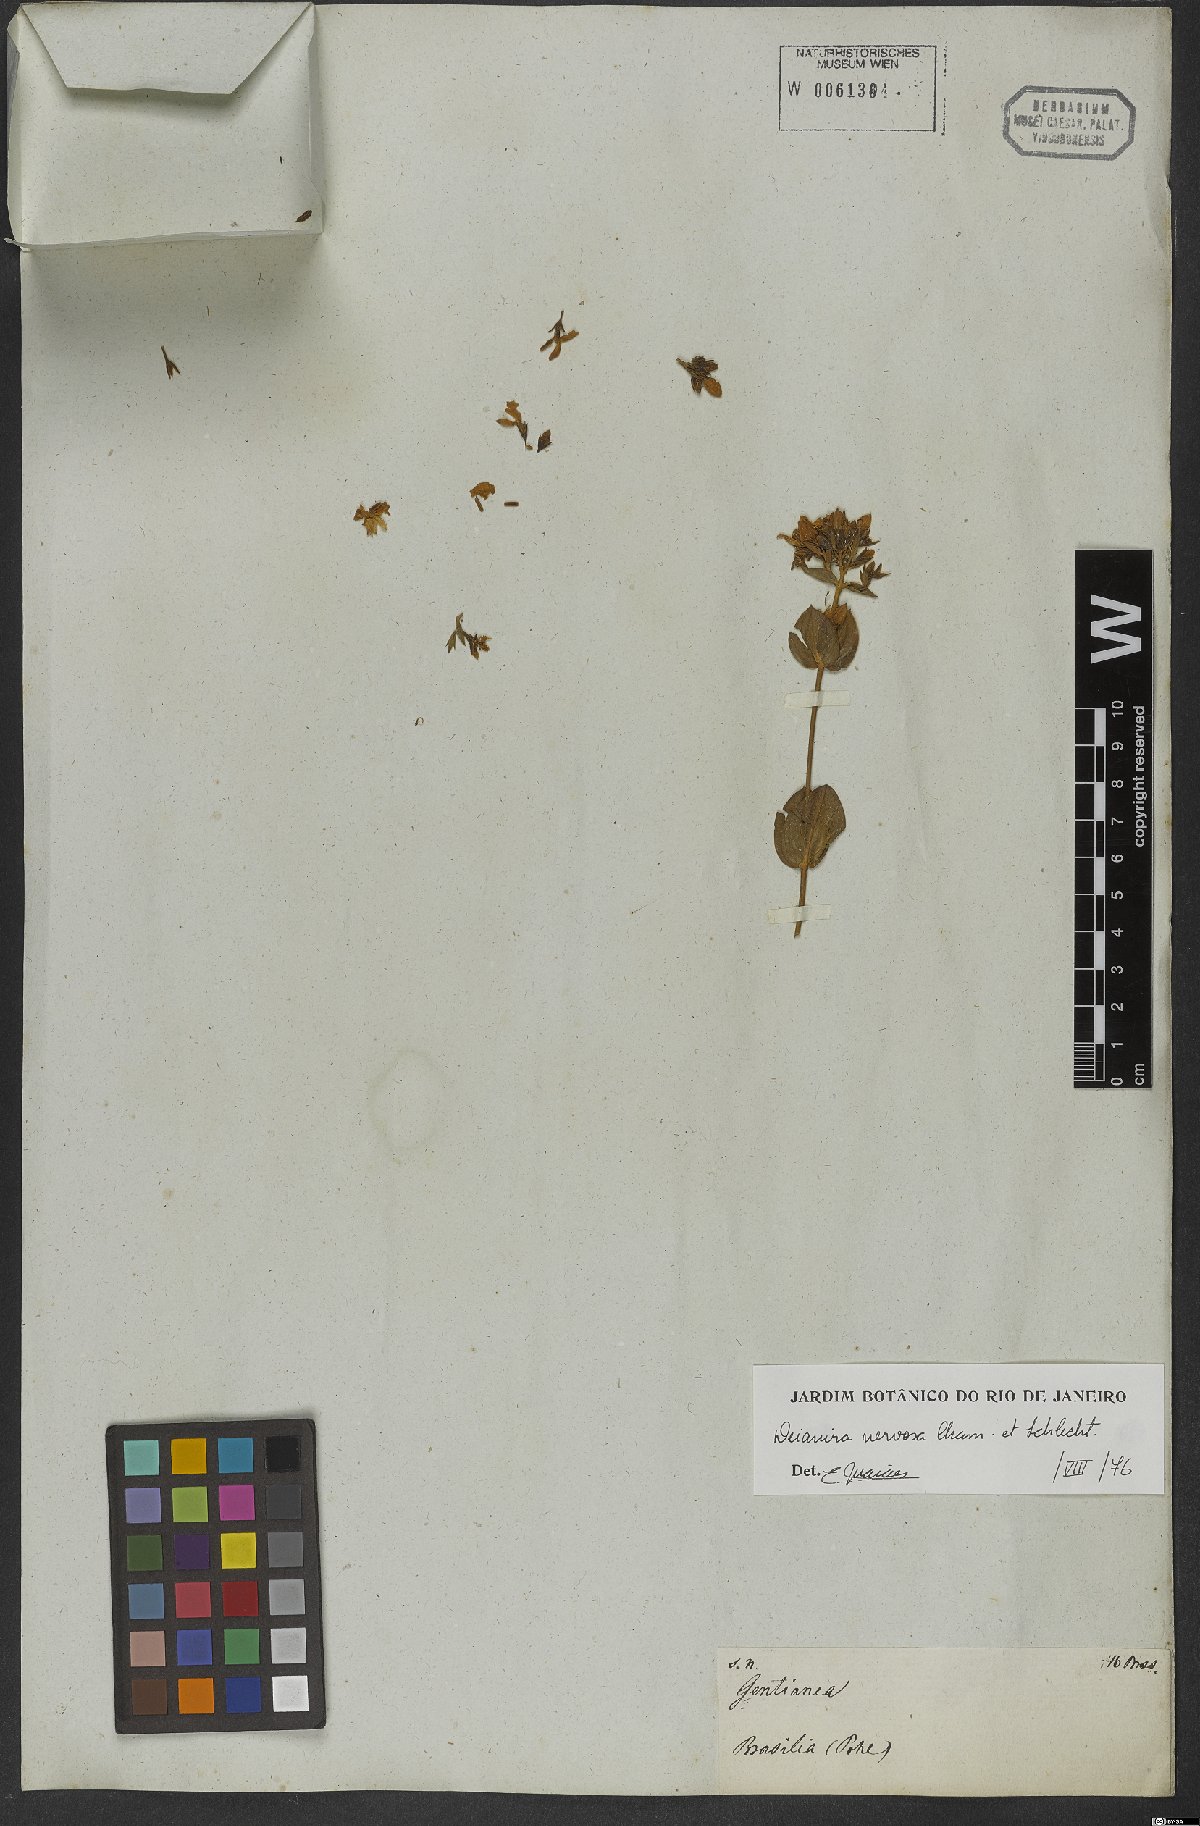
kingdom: Plantae
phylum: Tracheophyta
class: Magnoliopsida
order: Gentianales
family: Gentianaceae
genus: Deianira
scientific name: Deianira nervosa
